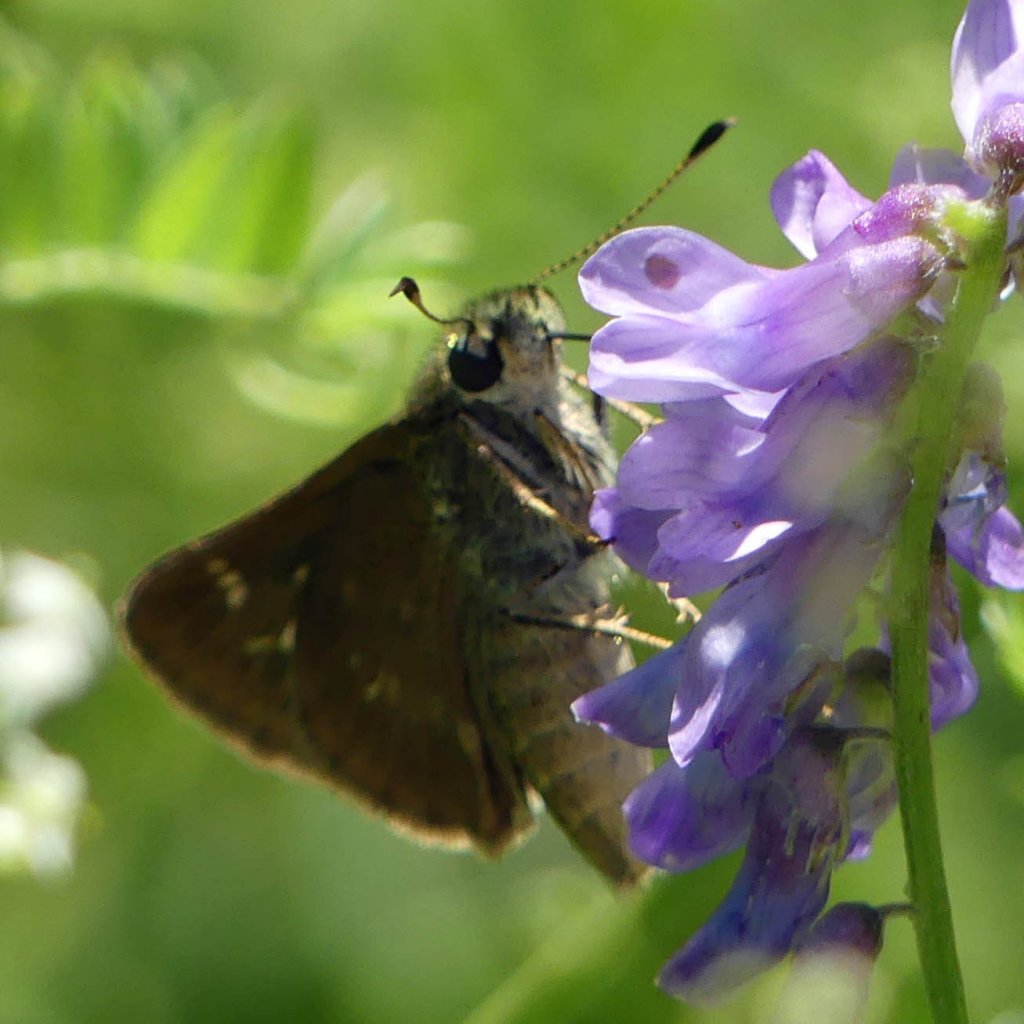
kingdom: Animalia
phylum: Arthropoda
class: Insecta
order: Lepidoptera
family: Hesperiidae
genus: Vernia
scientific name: Vernia verna
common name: Little Glassywing
